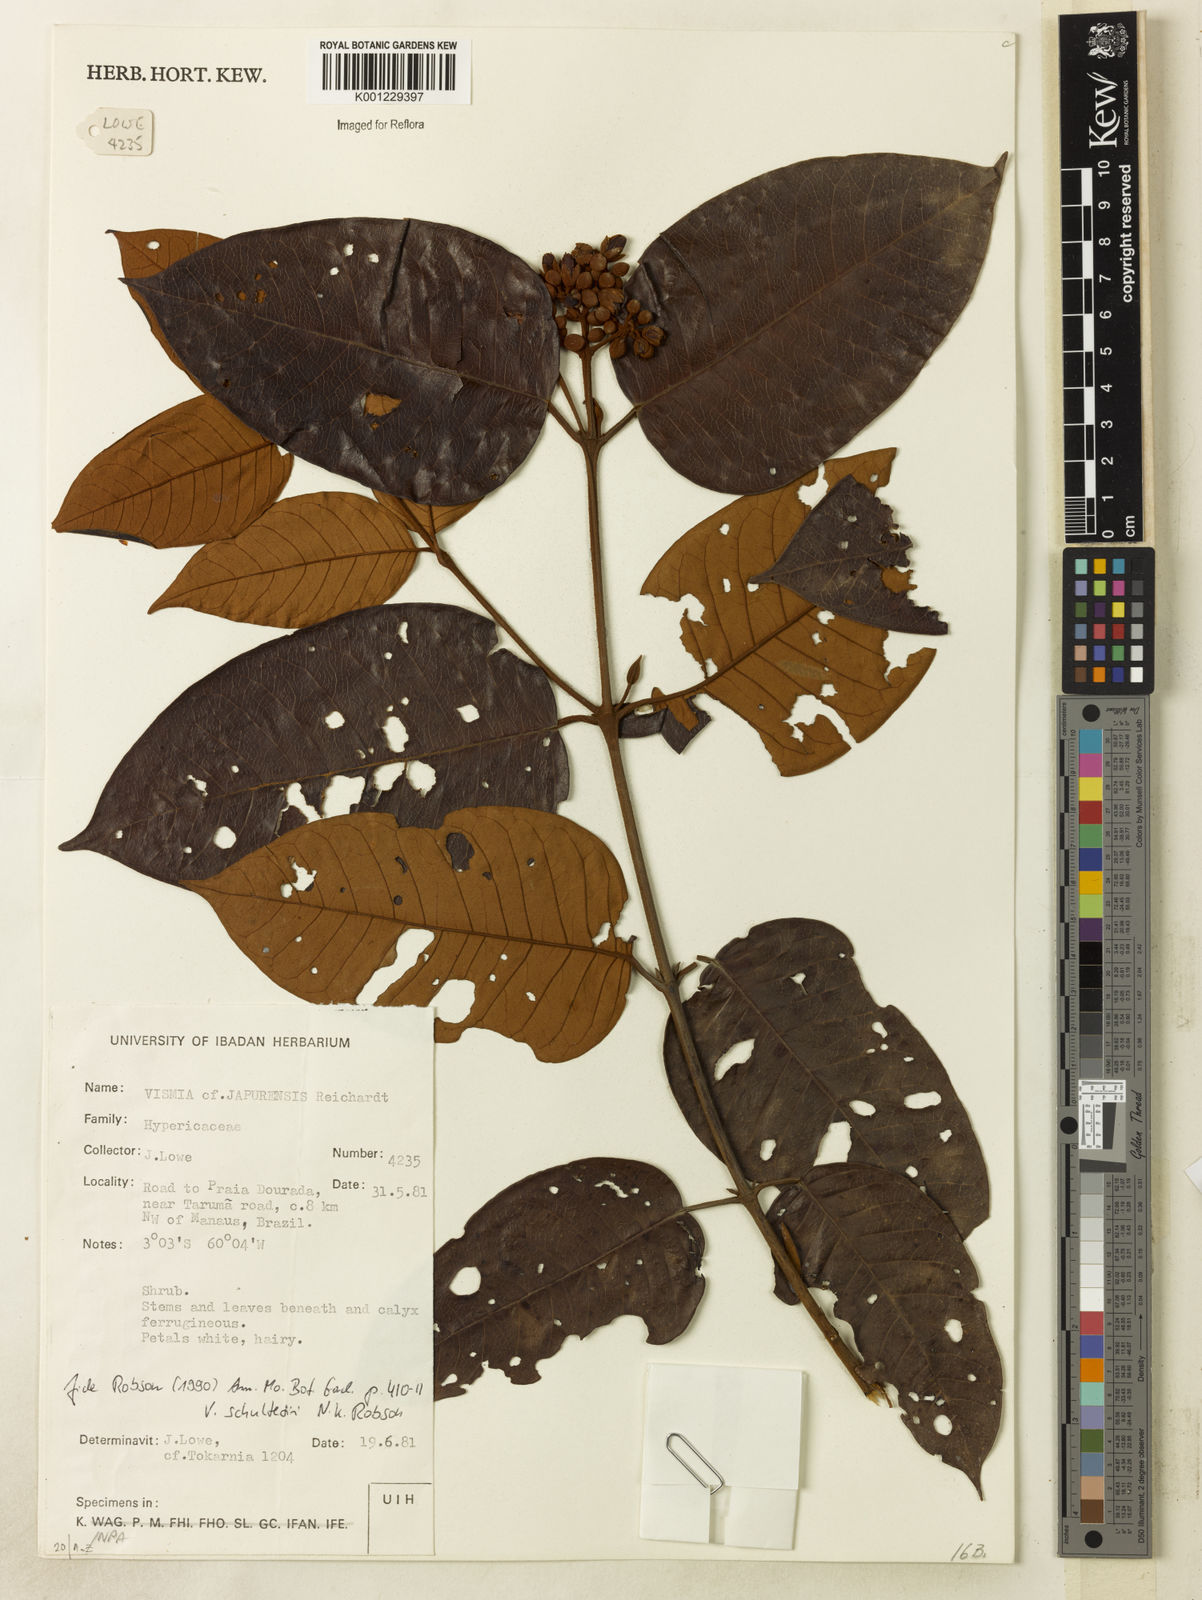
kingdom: Plantae
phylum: Tracheophyta
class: Magnoliopsida
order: Malpighiales
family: Hypericaceae
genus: Vismia
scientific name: Vismia ferruginea
